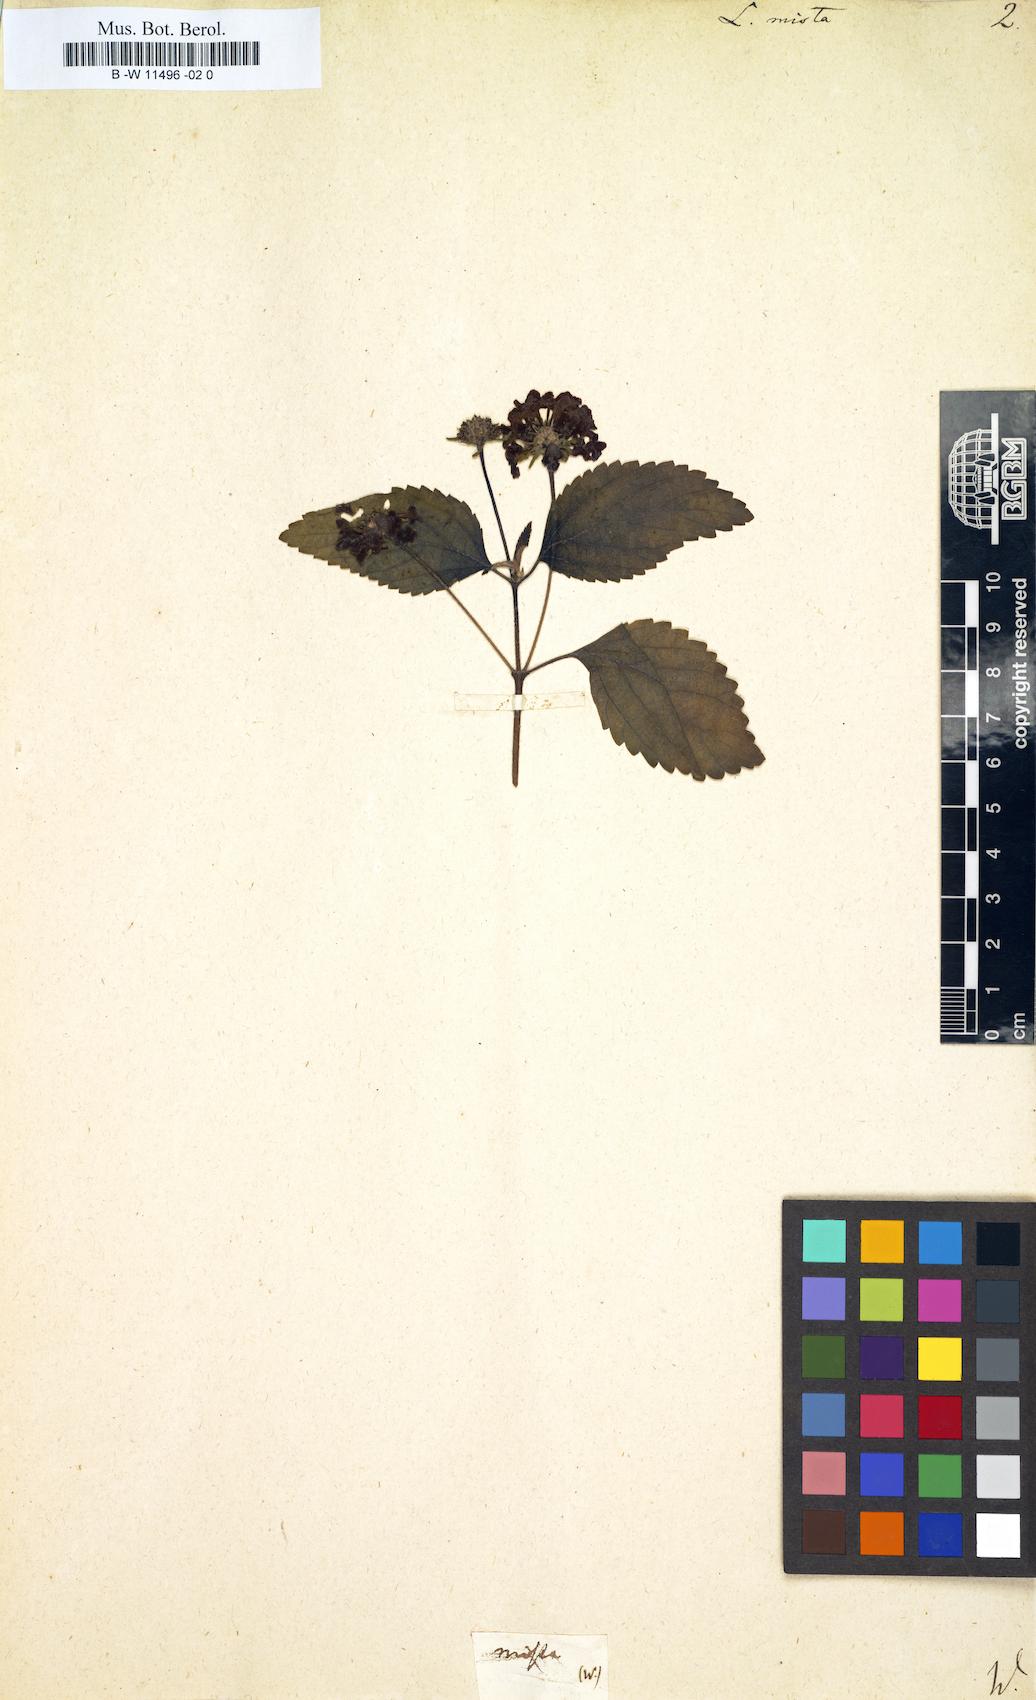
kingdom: Plantae
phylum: Tracheophyta
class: Magnoliopsida
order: Lamiales
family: Verbenaceae
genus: Lantana
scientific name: Lantana mista
